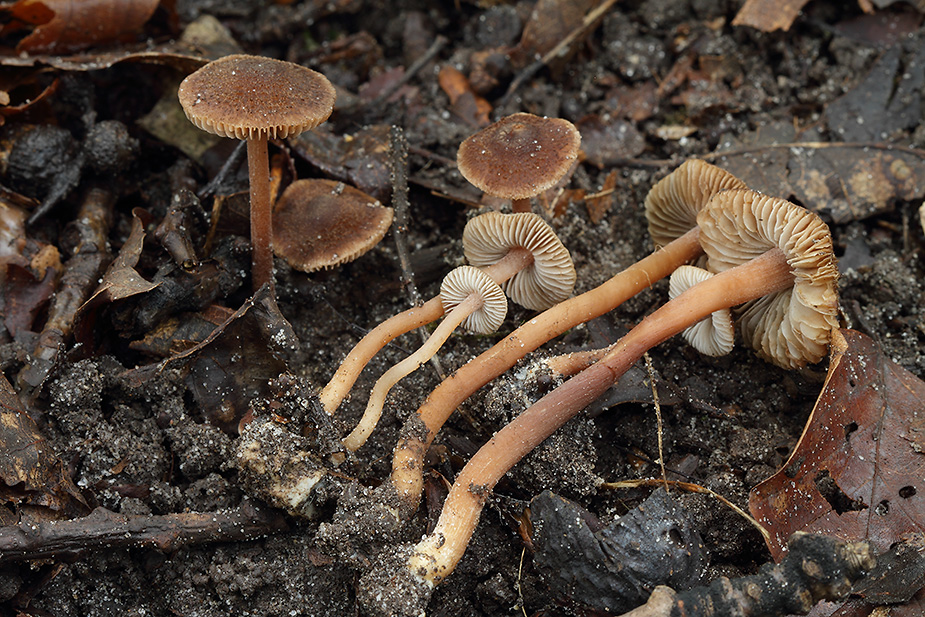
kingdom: Fungi
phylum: Basidiomycota
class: Agaricomycetes
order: Agaricales
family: Inocybaceae
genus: Inocybe
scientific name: Inocybe calospora
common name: pigsporet trævlhat
